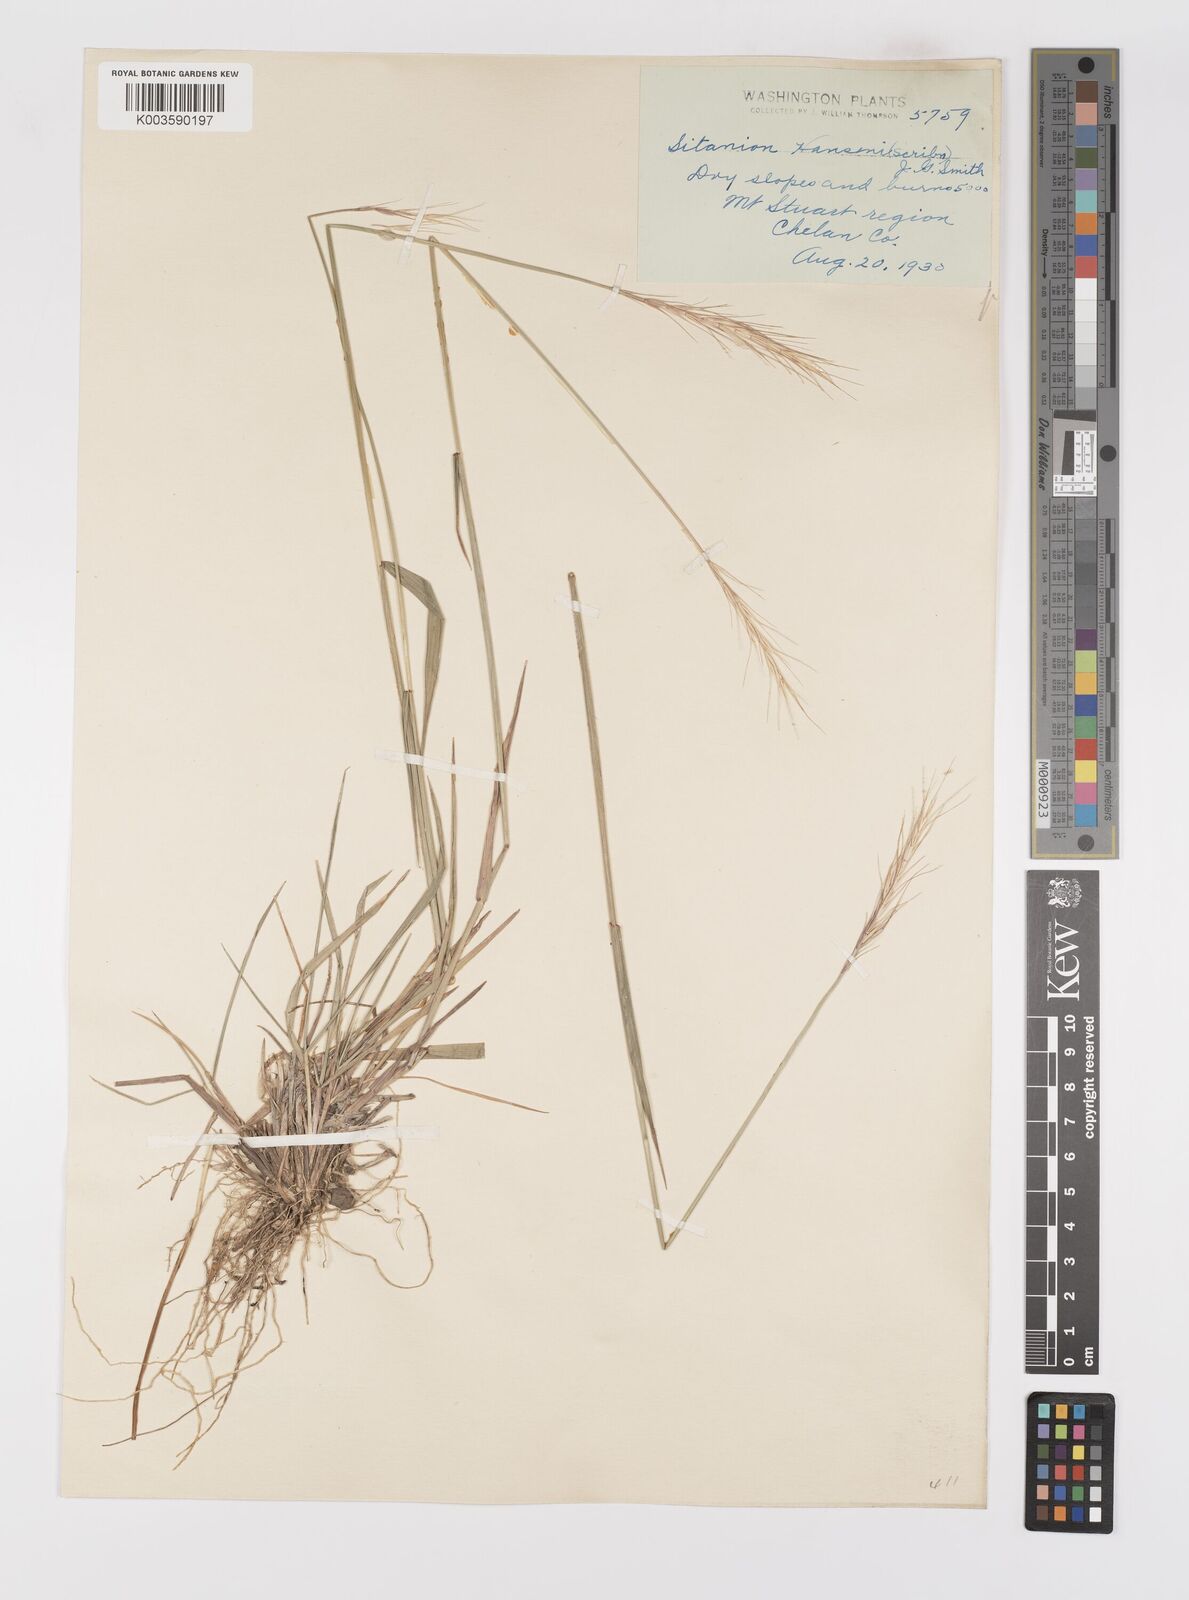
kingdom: Plantae
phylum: Tracheophyta
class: Liliopsida
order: Poales
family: Poaceae
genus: Elymus
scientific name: Elymus hansenii
